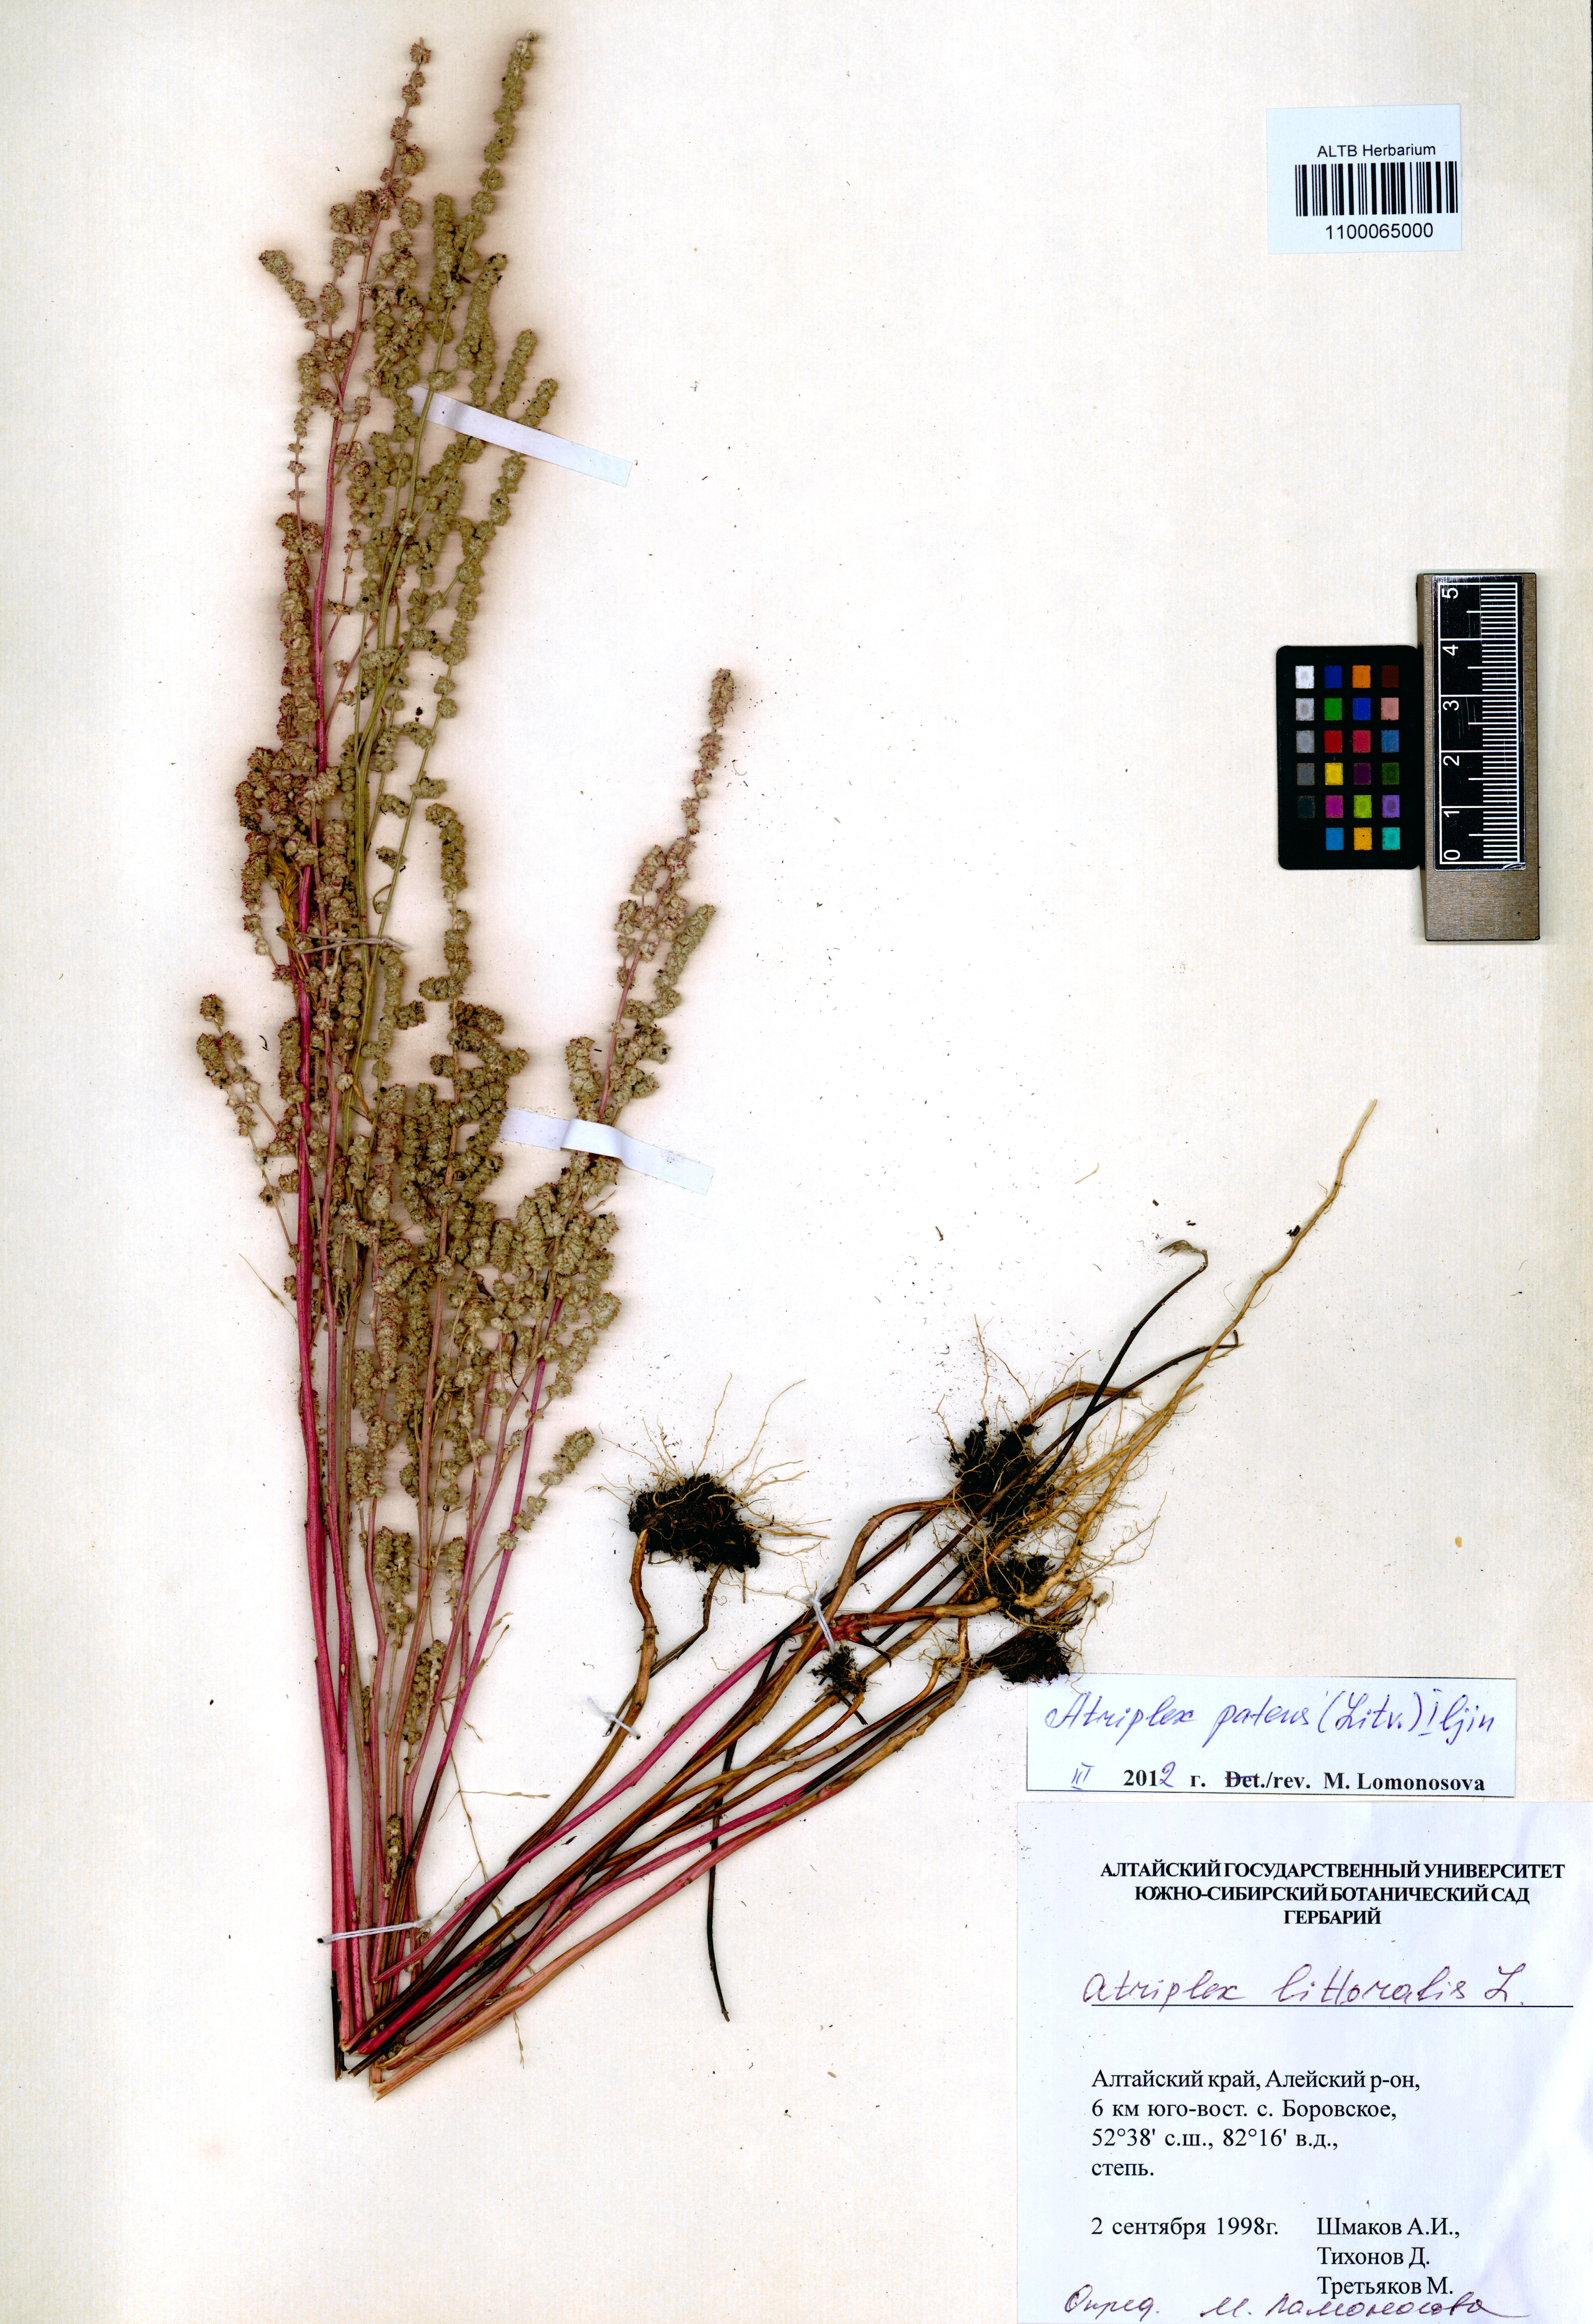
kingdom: Plantae
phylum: Tracheophyta
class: Magnoliopsida
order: Caryophyllales
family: Amaranthaceae
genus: Atriplex
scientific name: Atriplex patens
